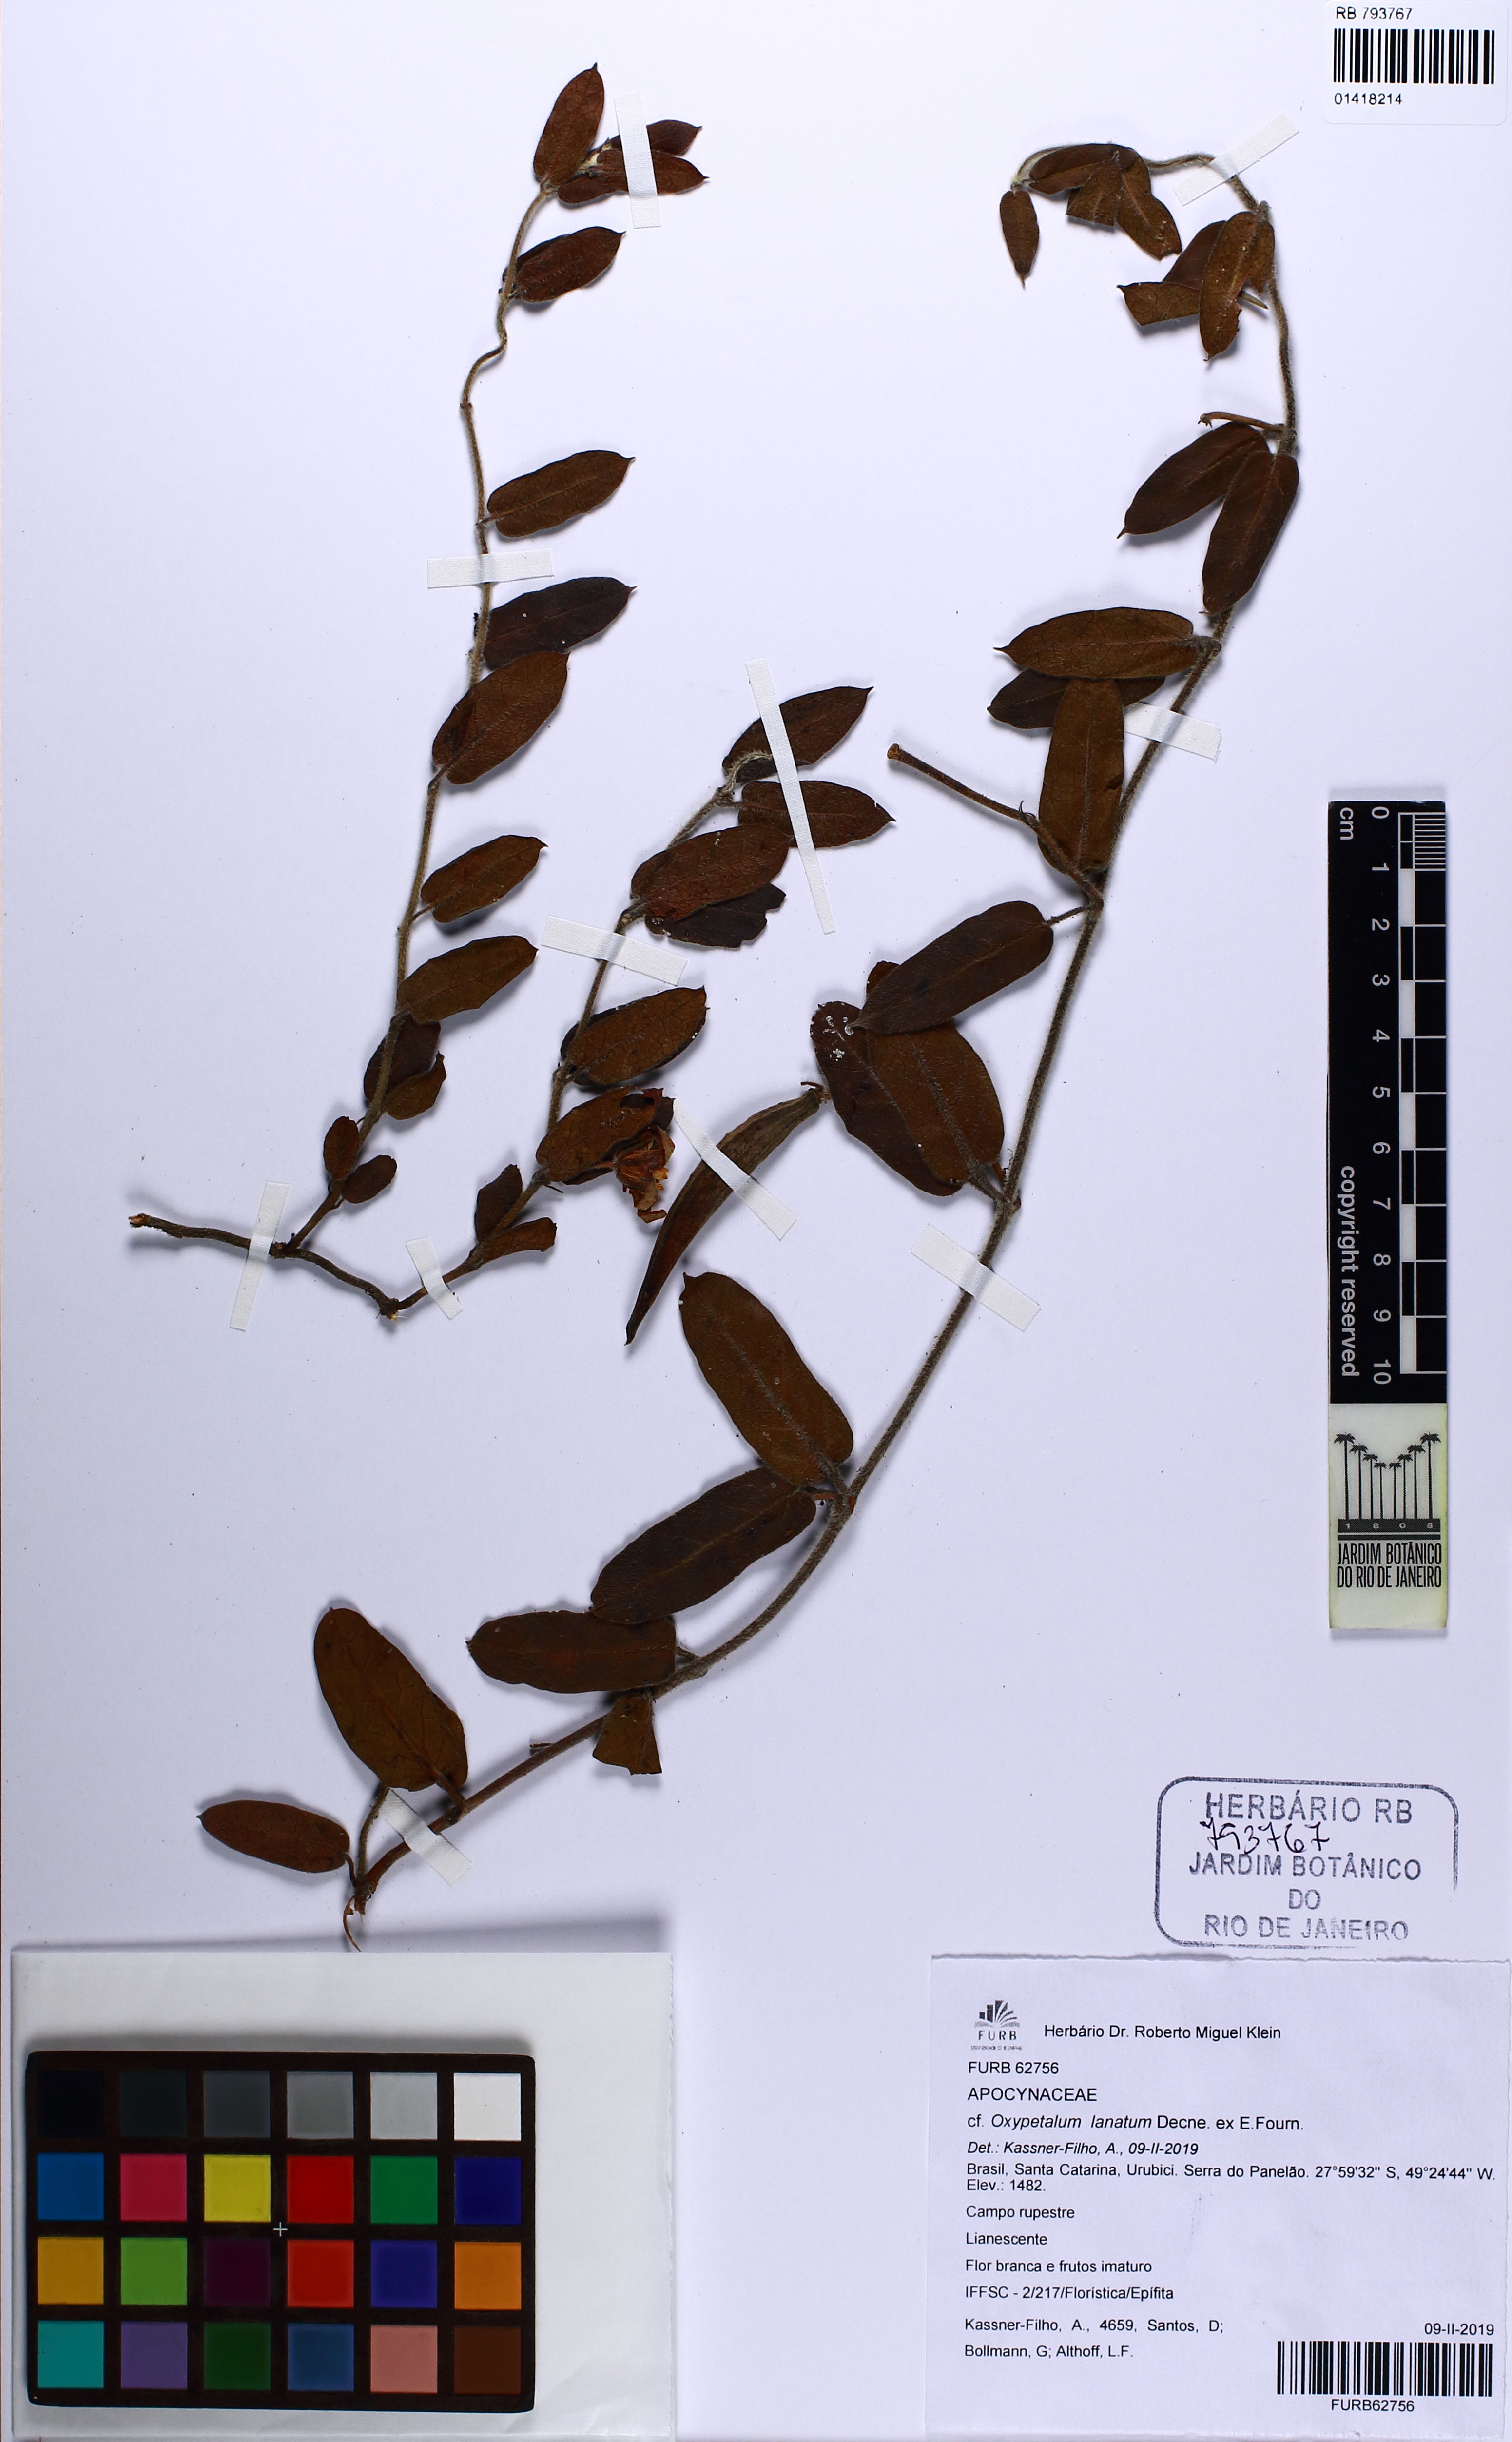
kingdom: Plantae
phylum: Tracheophyta
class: Magnoliopsida
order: Gentianales
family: Apocynaceae
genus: Oxypetalum
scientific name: Oxypetalum lanatum
